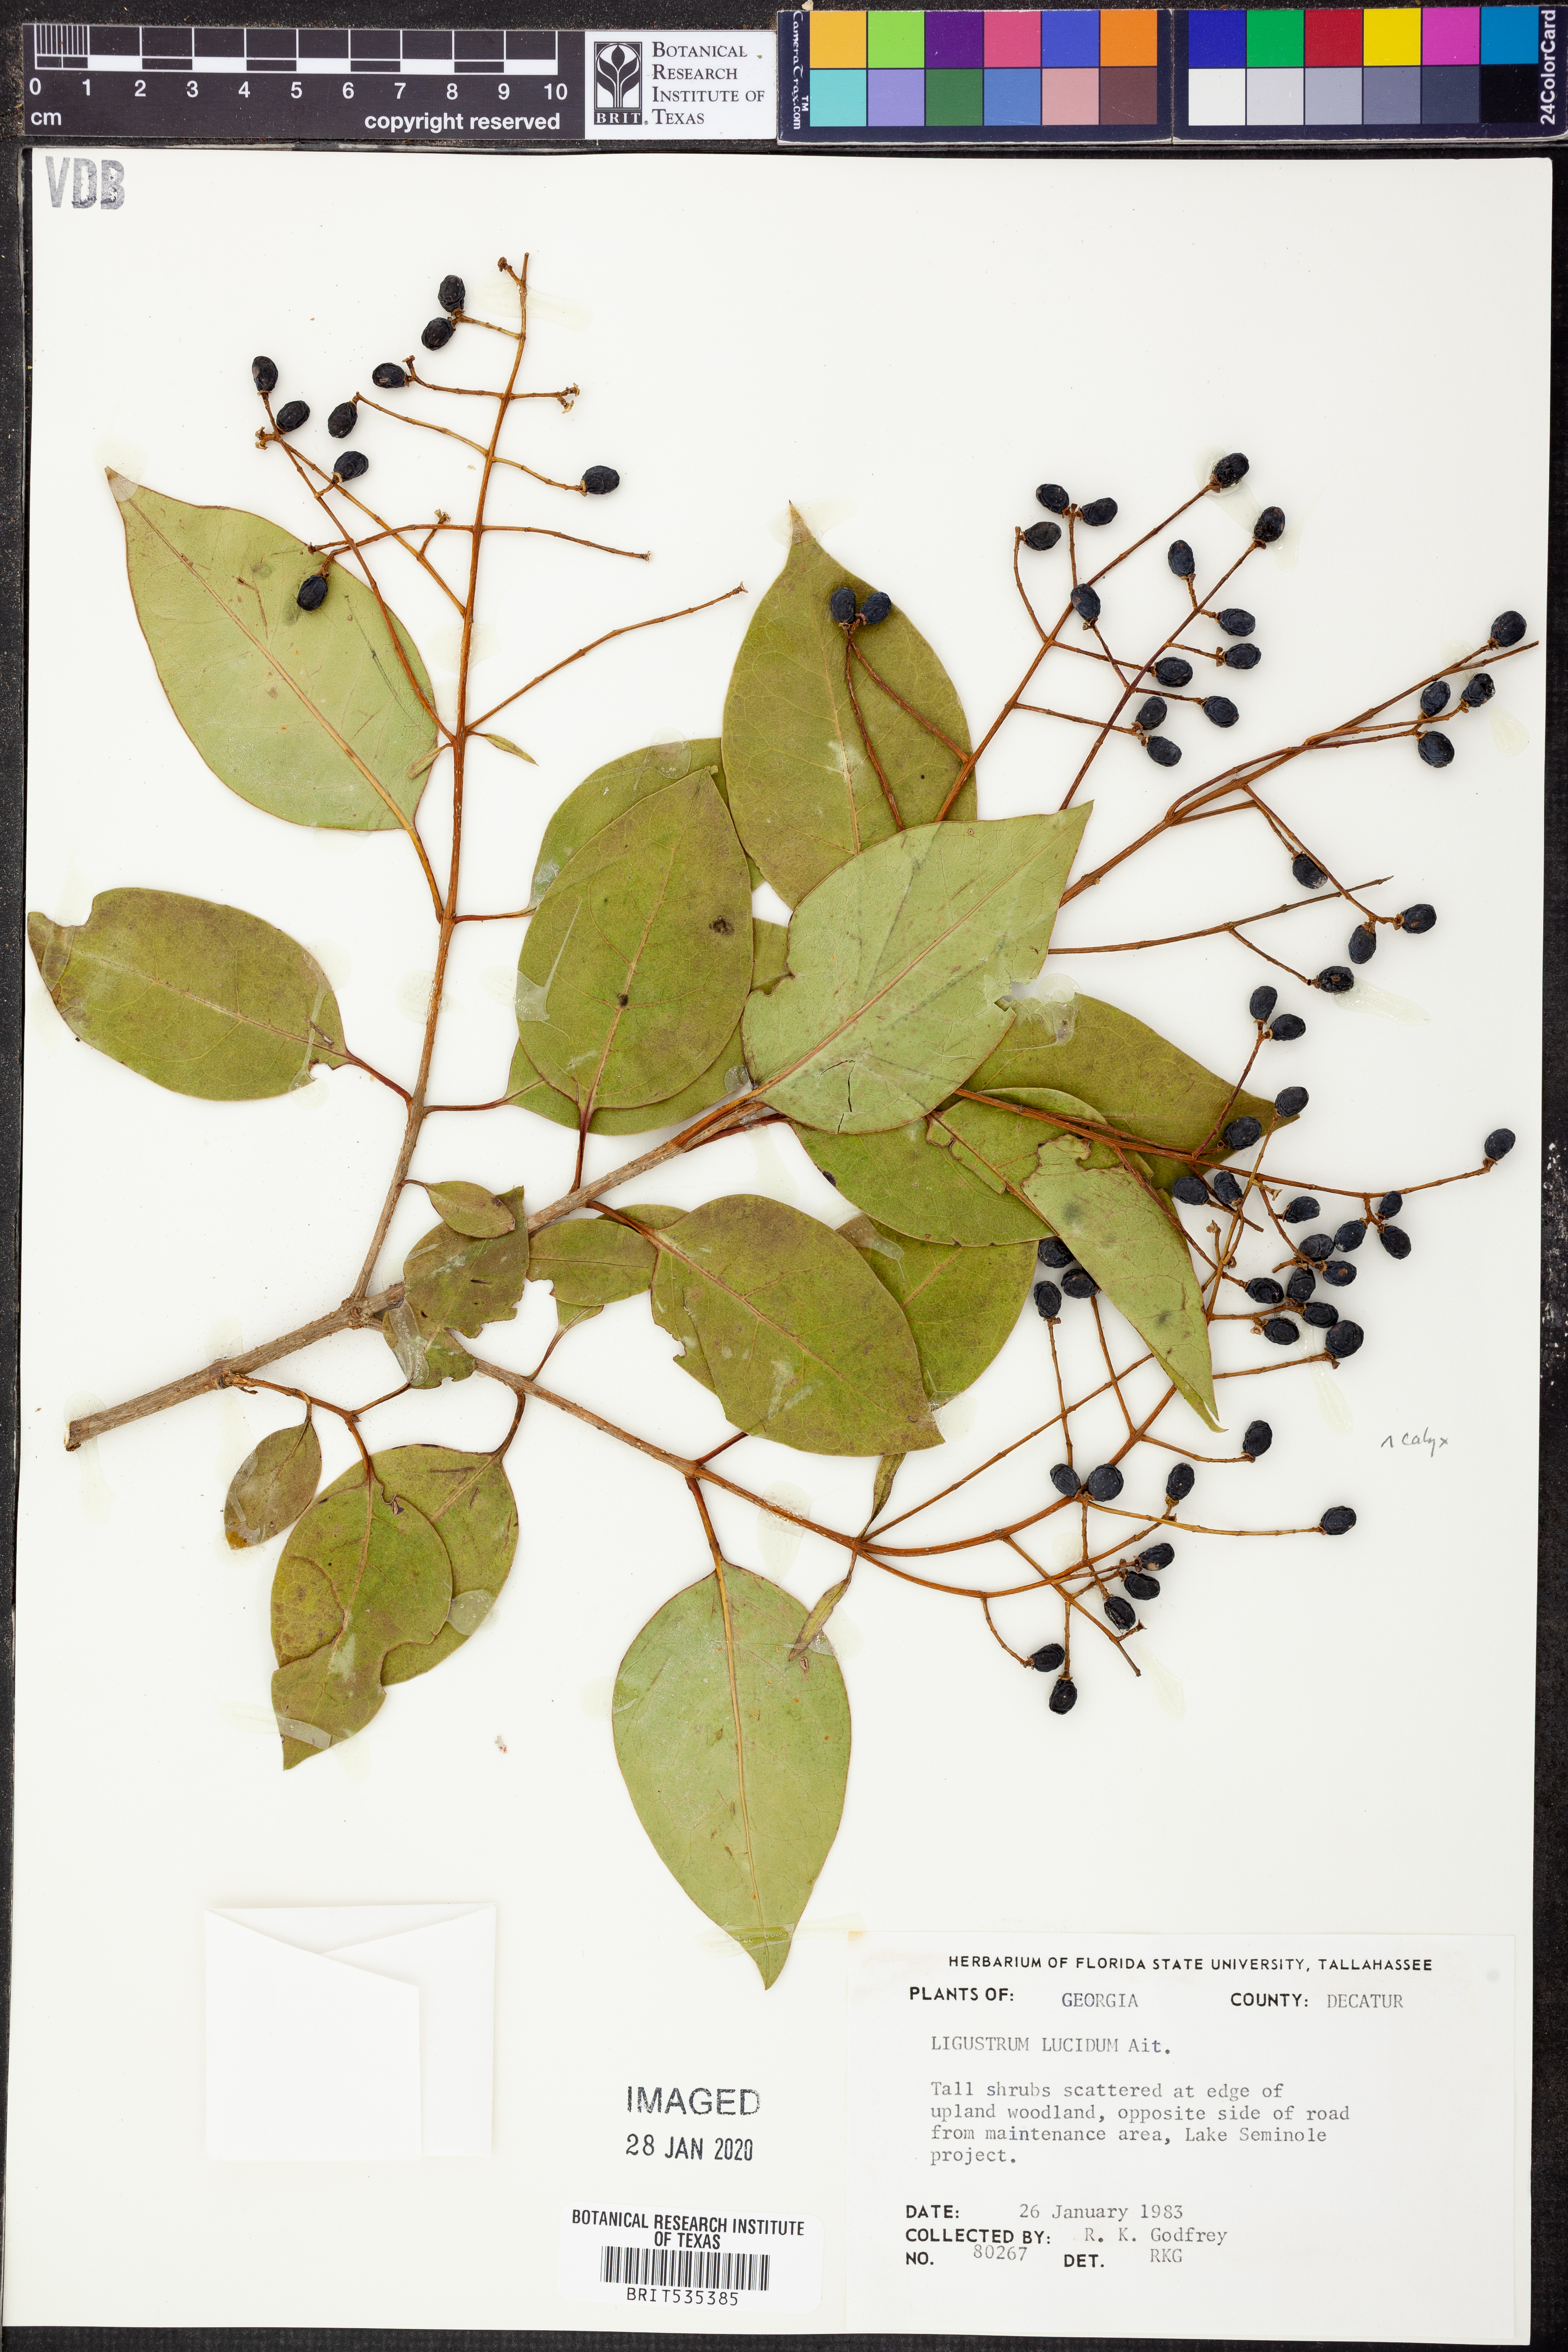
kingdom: Plantae
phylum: Tracheophyta
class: Magnoliopsida
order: Lamiales
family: Oleaceae
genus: Ligustrum
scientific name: Ligustrum lucidum
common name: Glossy privet
